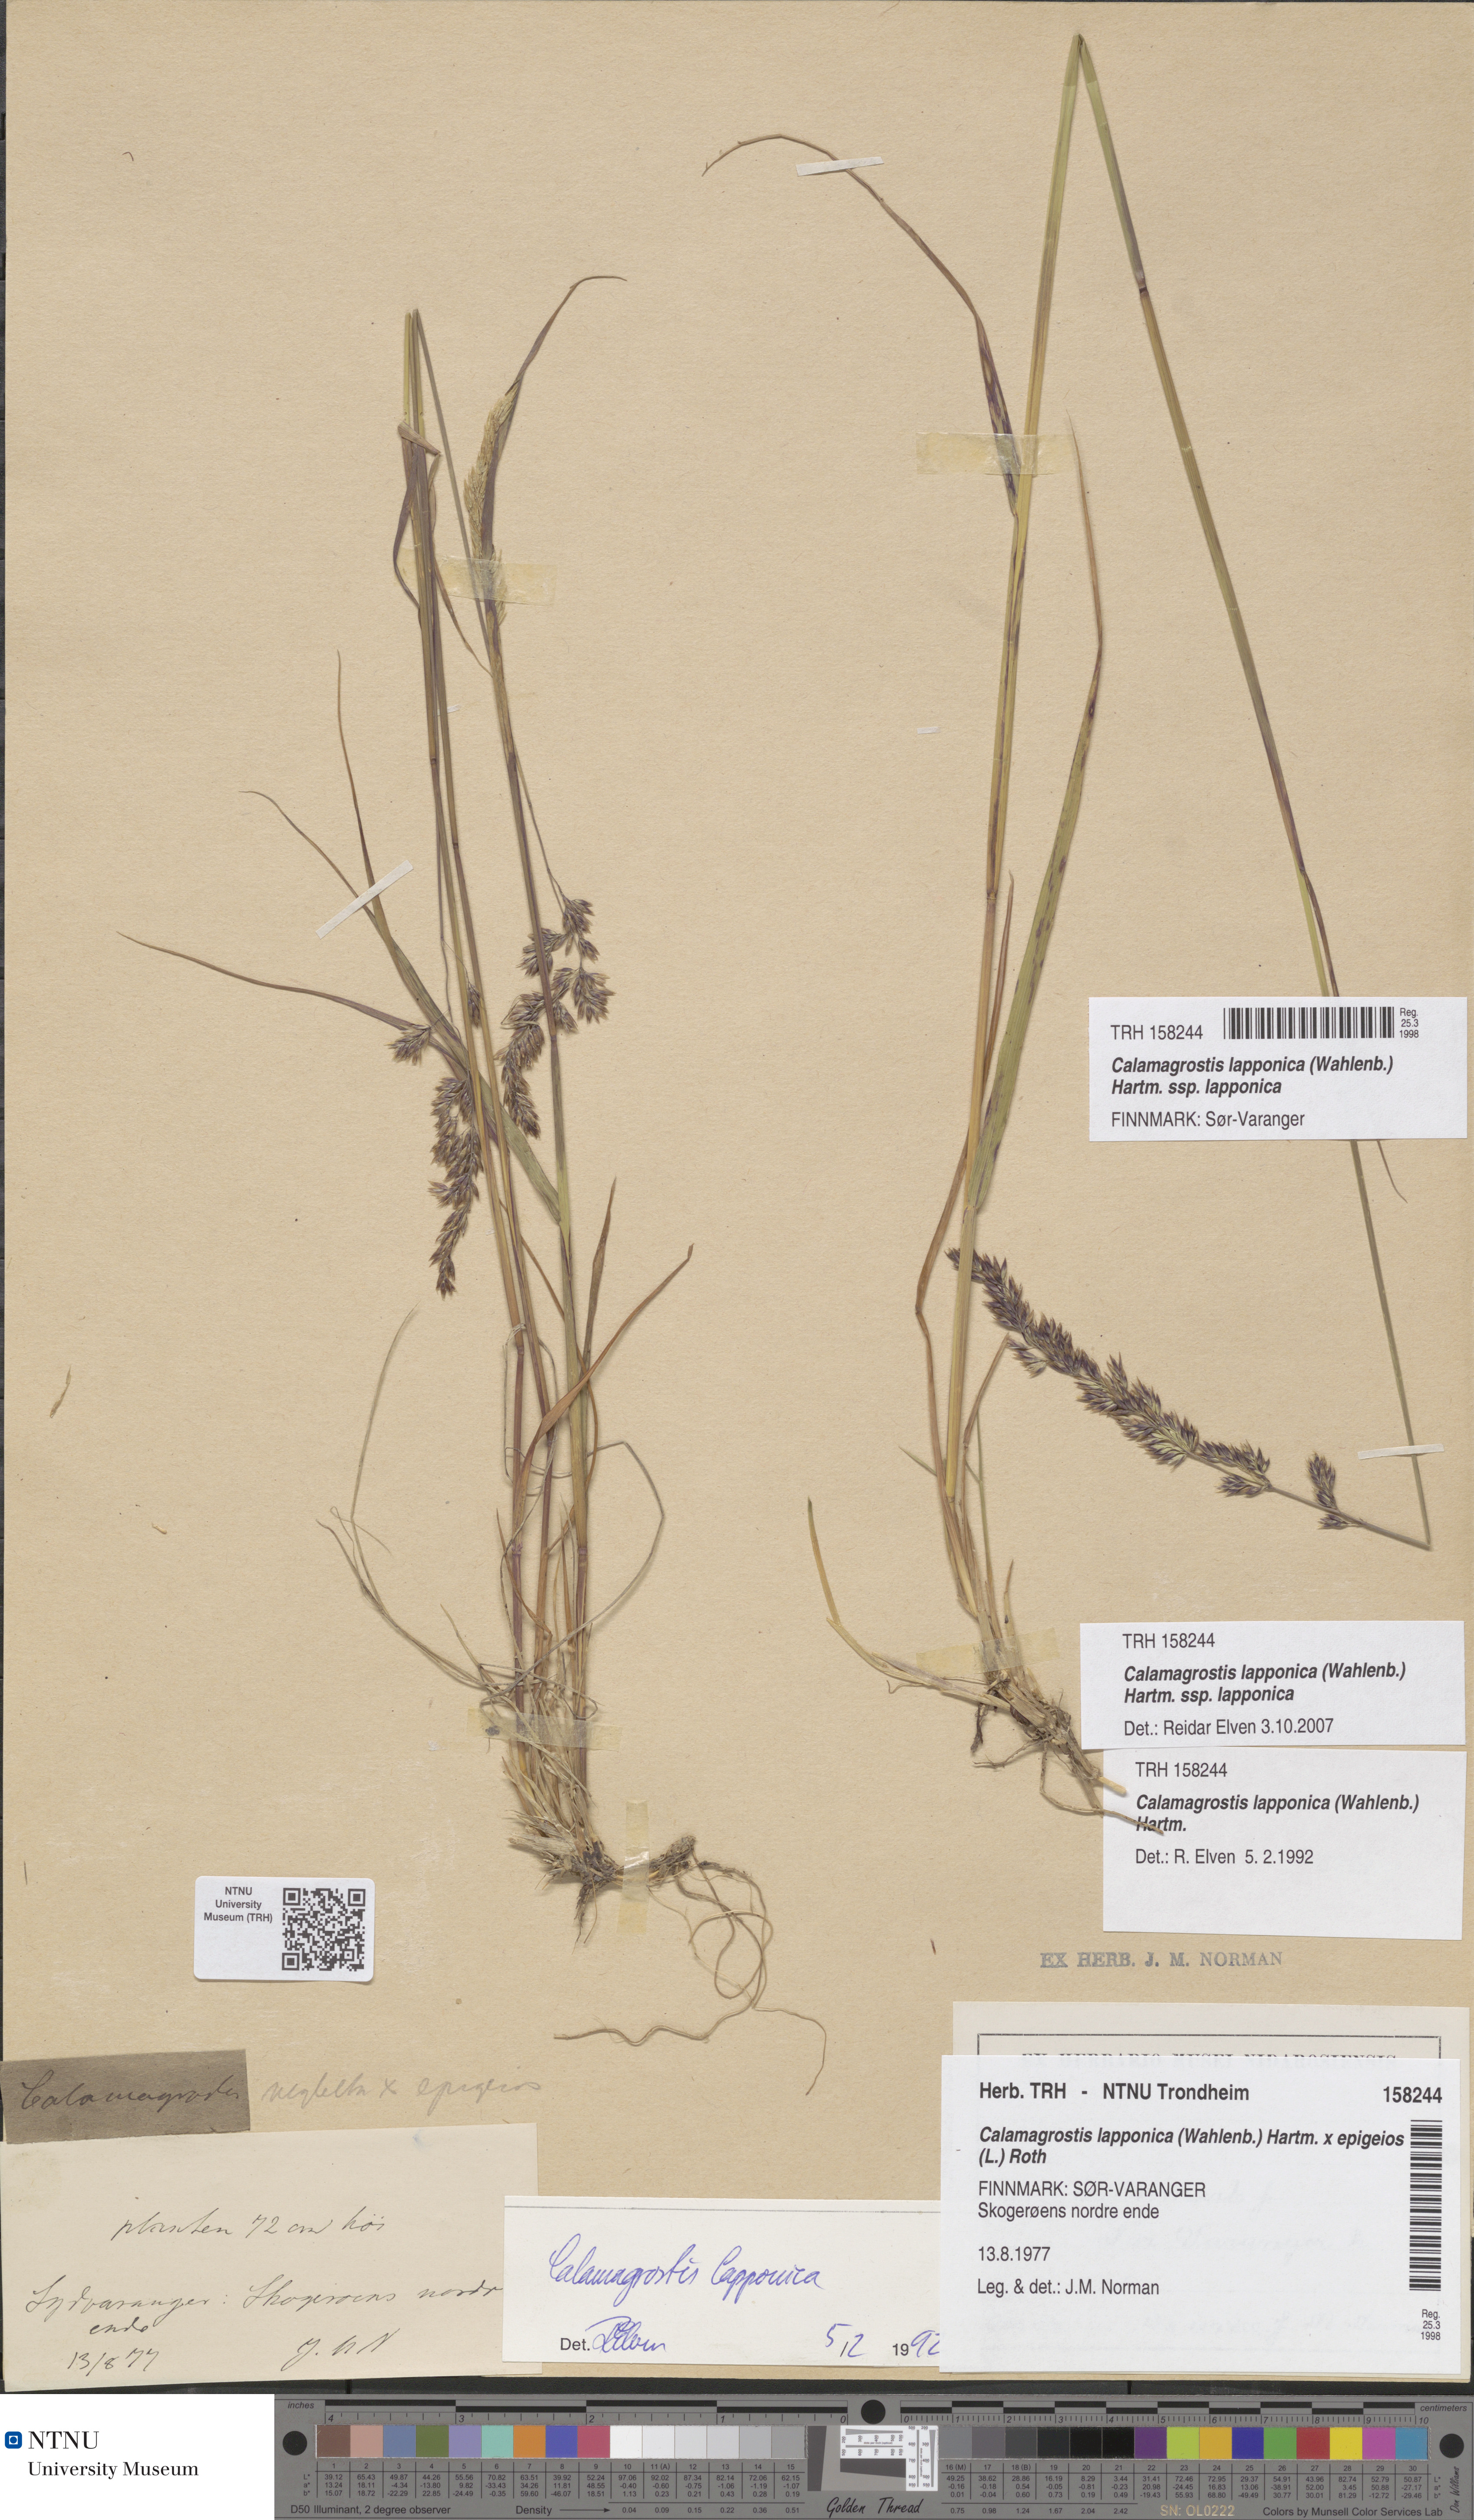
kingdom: Plantae
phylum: Tracheophyta
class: Liliopsida
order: Poales
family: Poaceae
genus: Calamagrostis
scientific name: Calamagrostis lapponica
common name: Lapland reedgrass
